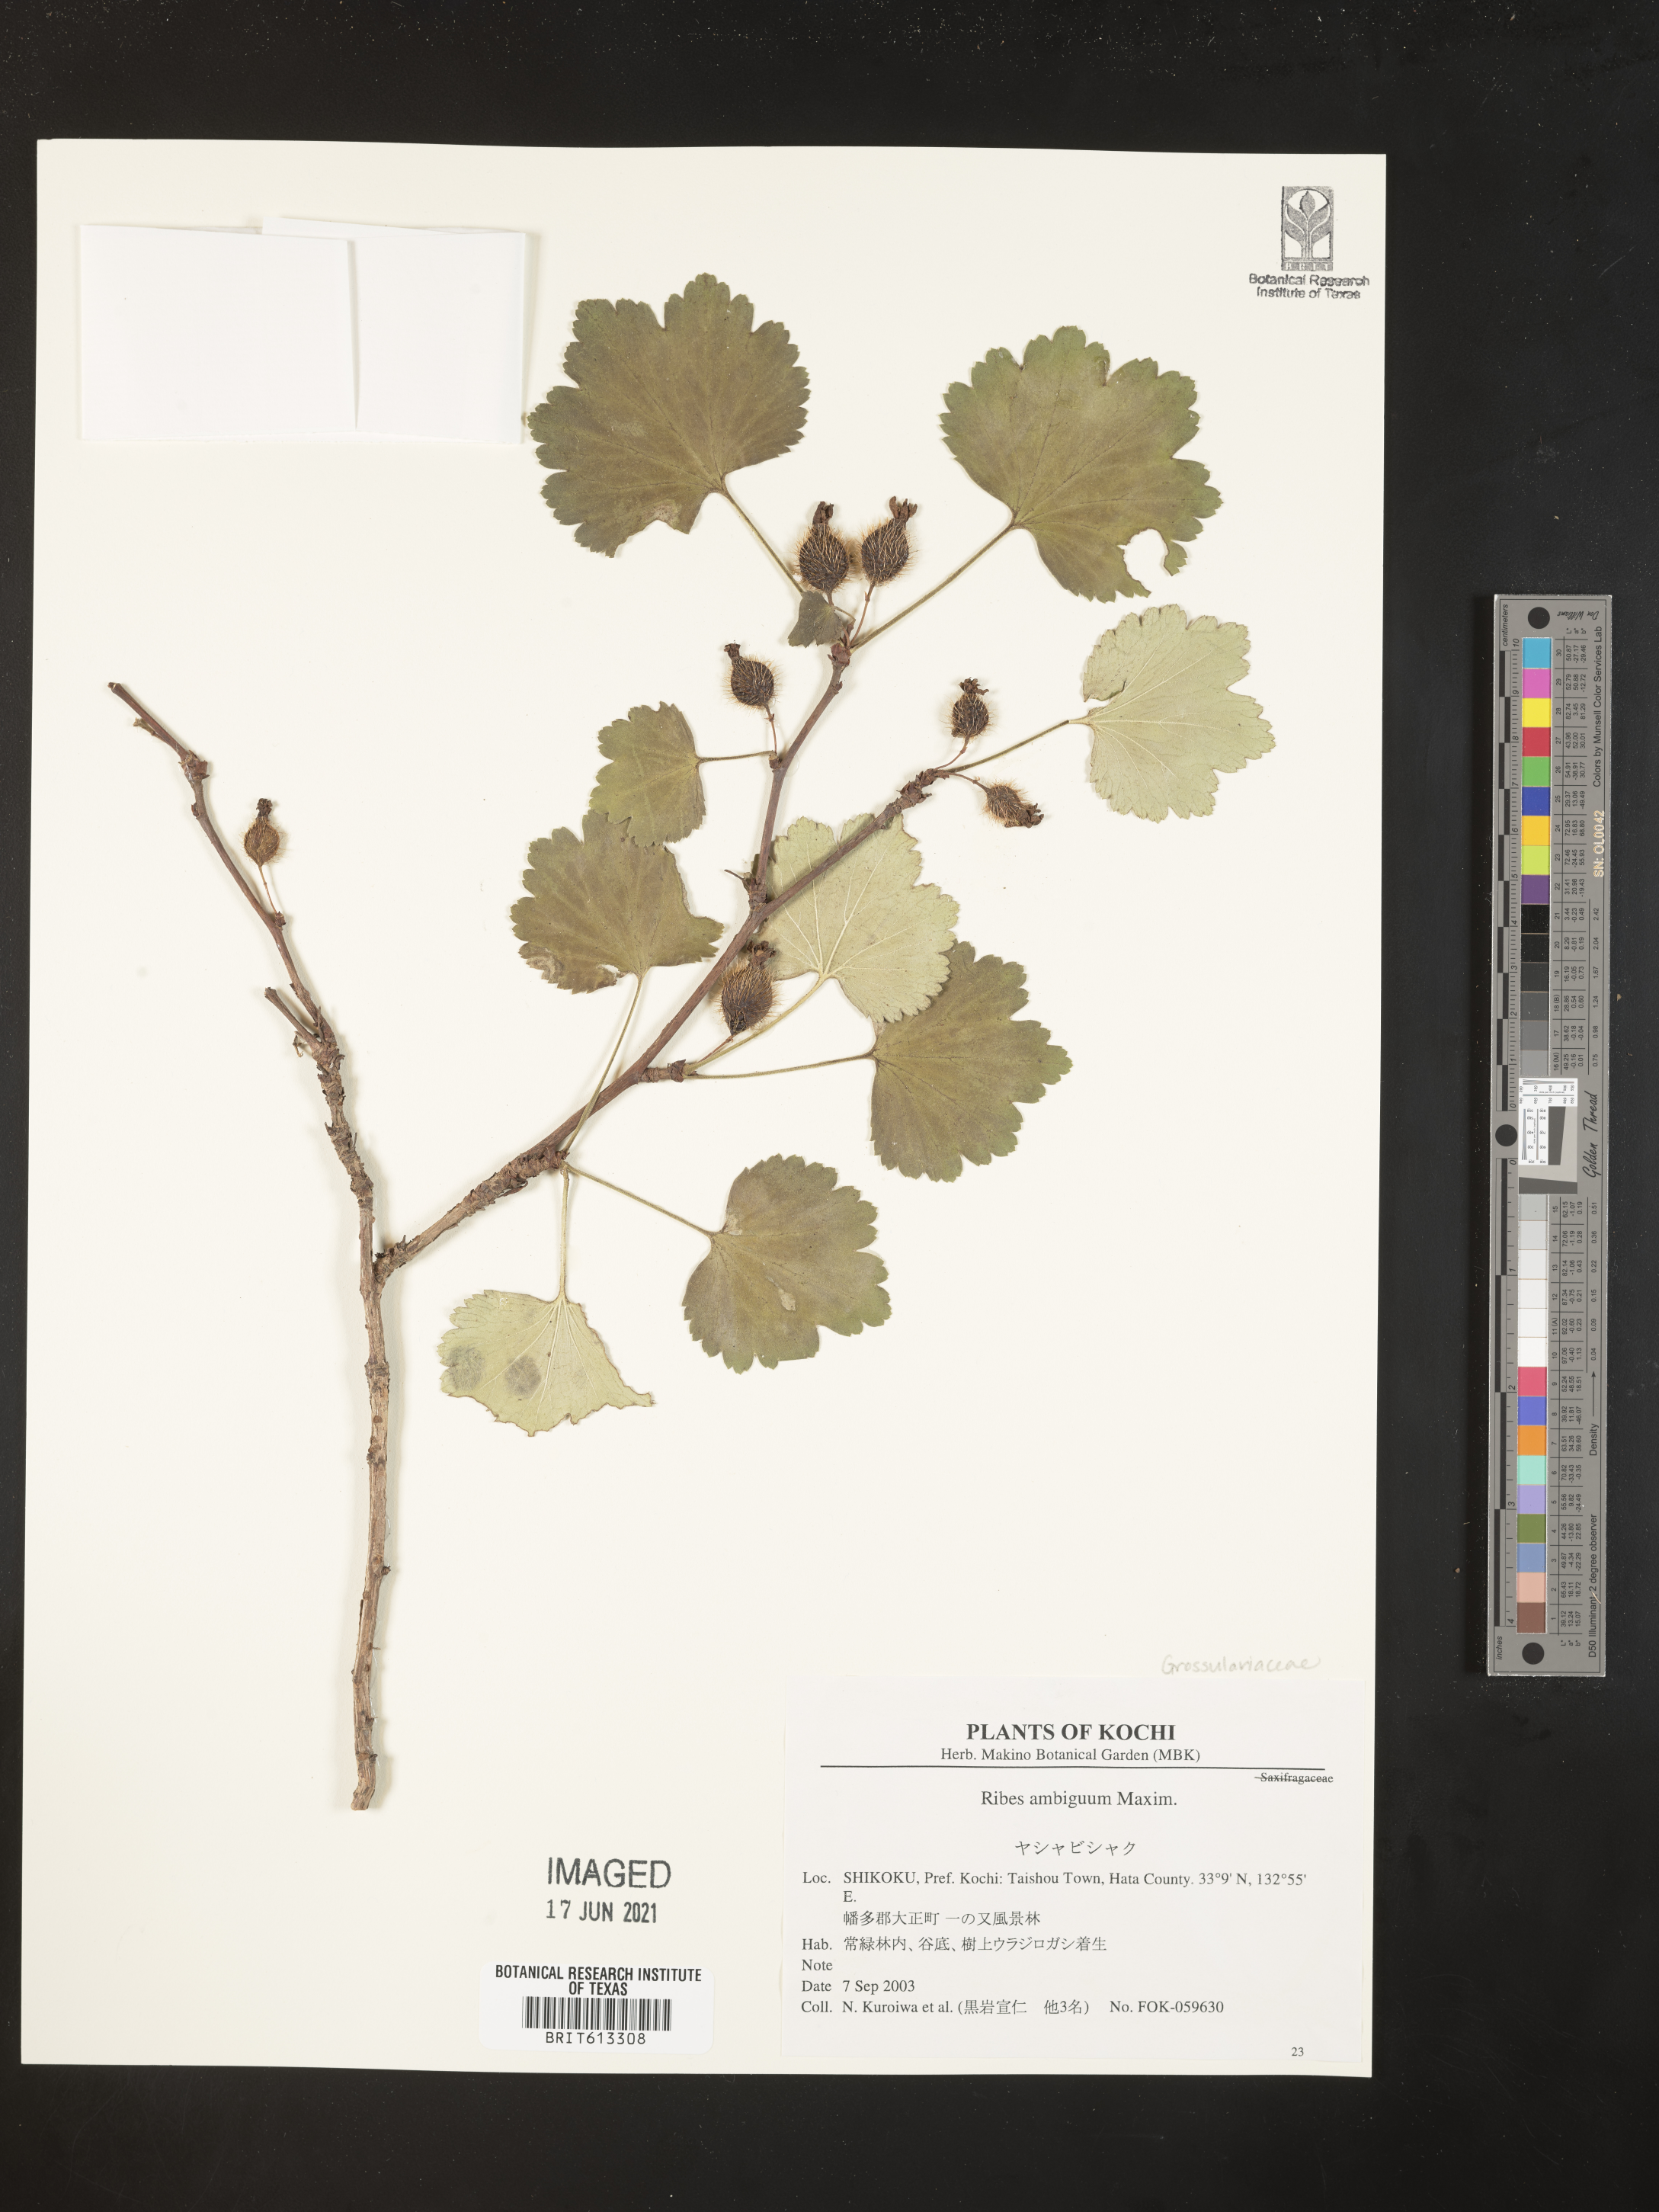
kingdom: Plantae
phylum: Tracheophyta
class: Magnoliopsida
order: Saxifragales
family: Grossulariaceae
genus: Ribes
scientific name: Ribes binominatum
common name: Trailing gooseberry
